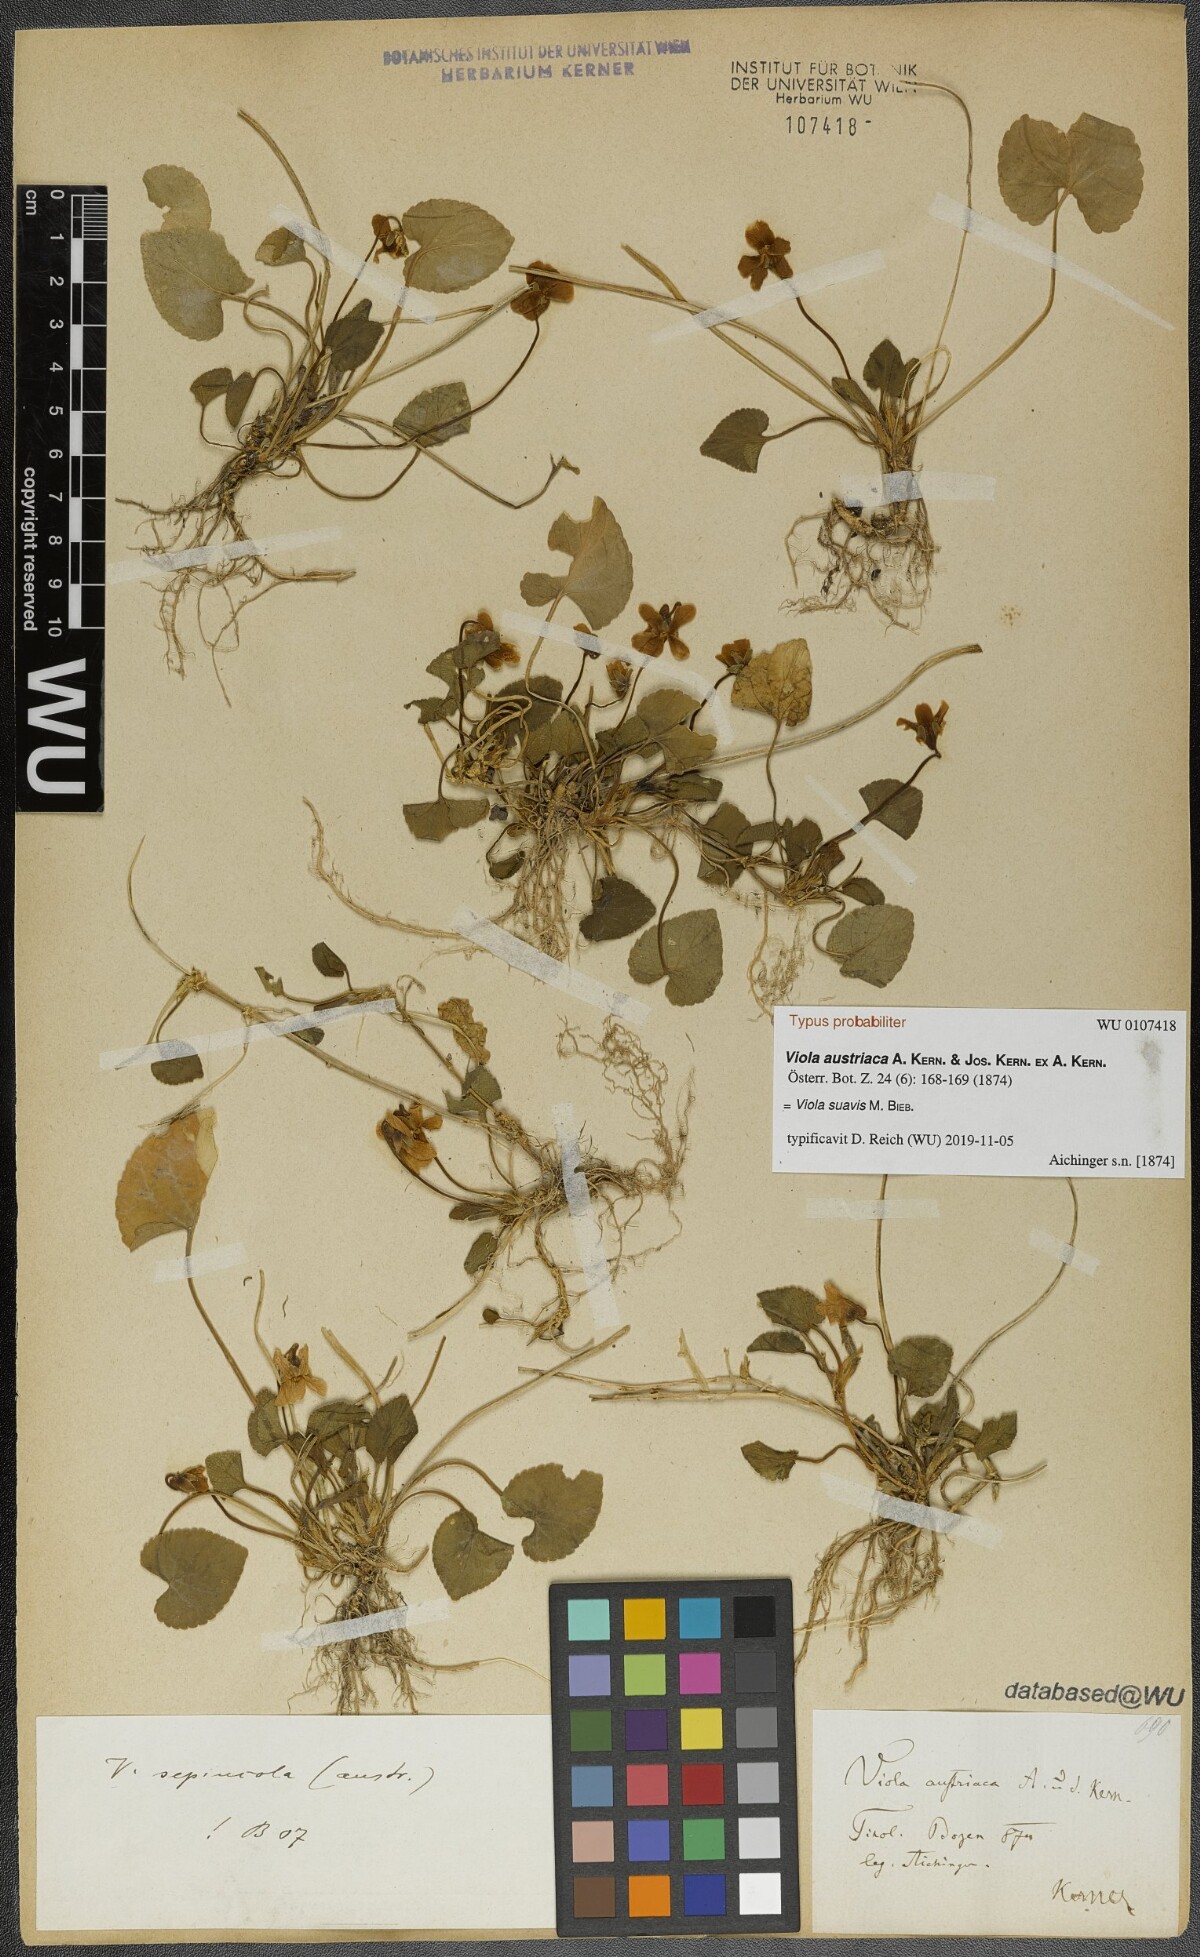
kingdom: Plantae
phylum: Tracheophyta
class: Magnoliopsida
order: Malpighiales
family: Violaceae
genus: Viola
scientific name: Viola suavis
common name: Russian violet
